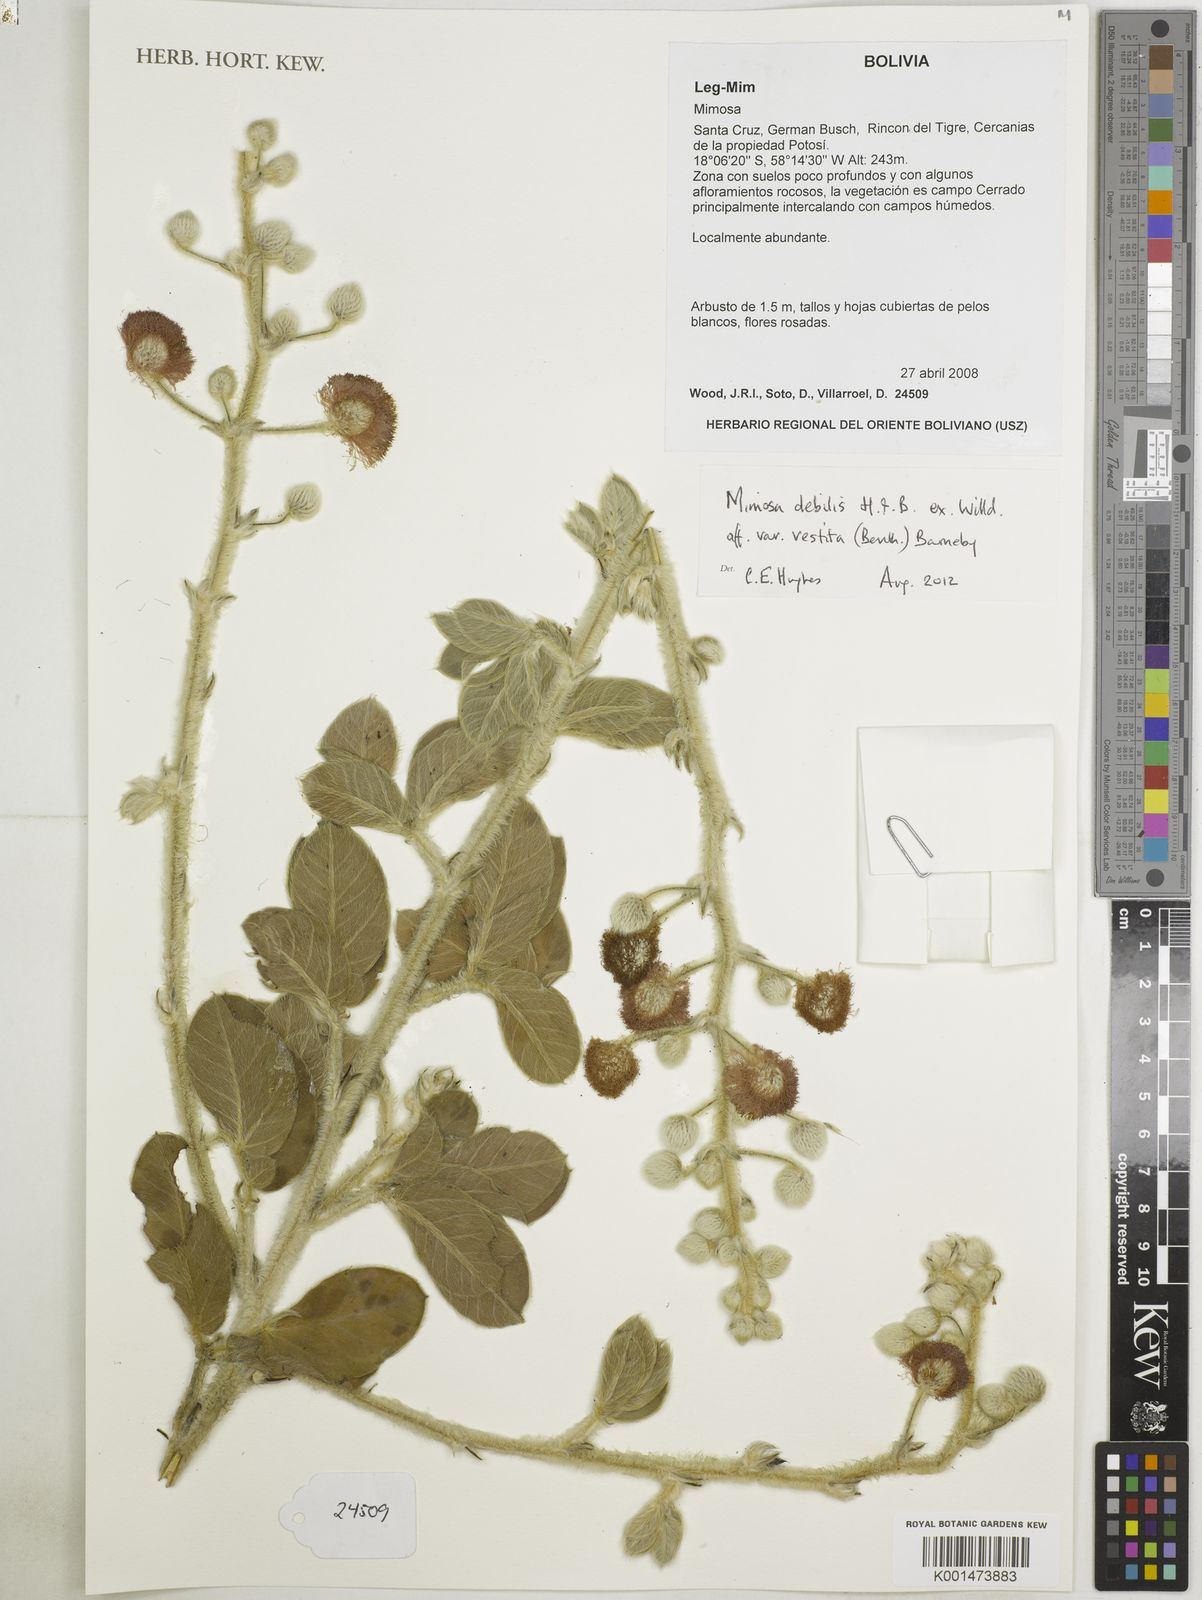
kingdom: Plantae
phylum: Tracheophyta
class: Magnoliopsida
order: Fabales
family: Fabaceae
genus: Mimosa
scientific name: Mimosa debilis
